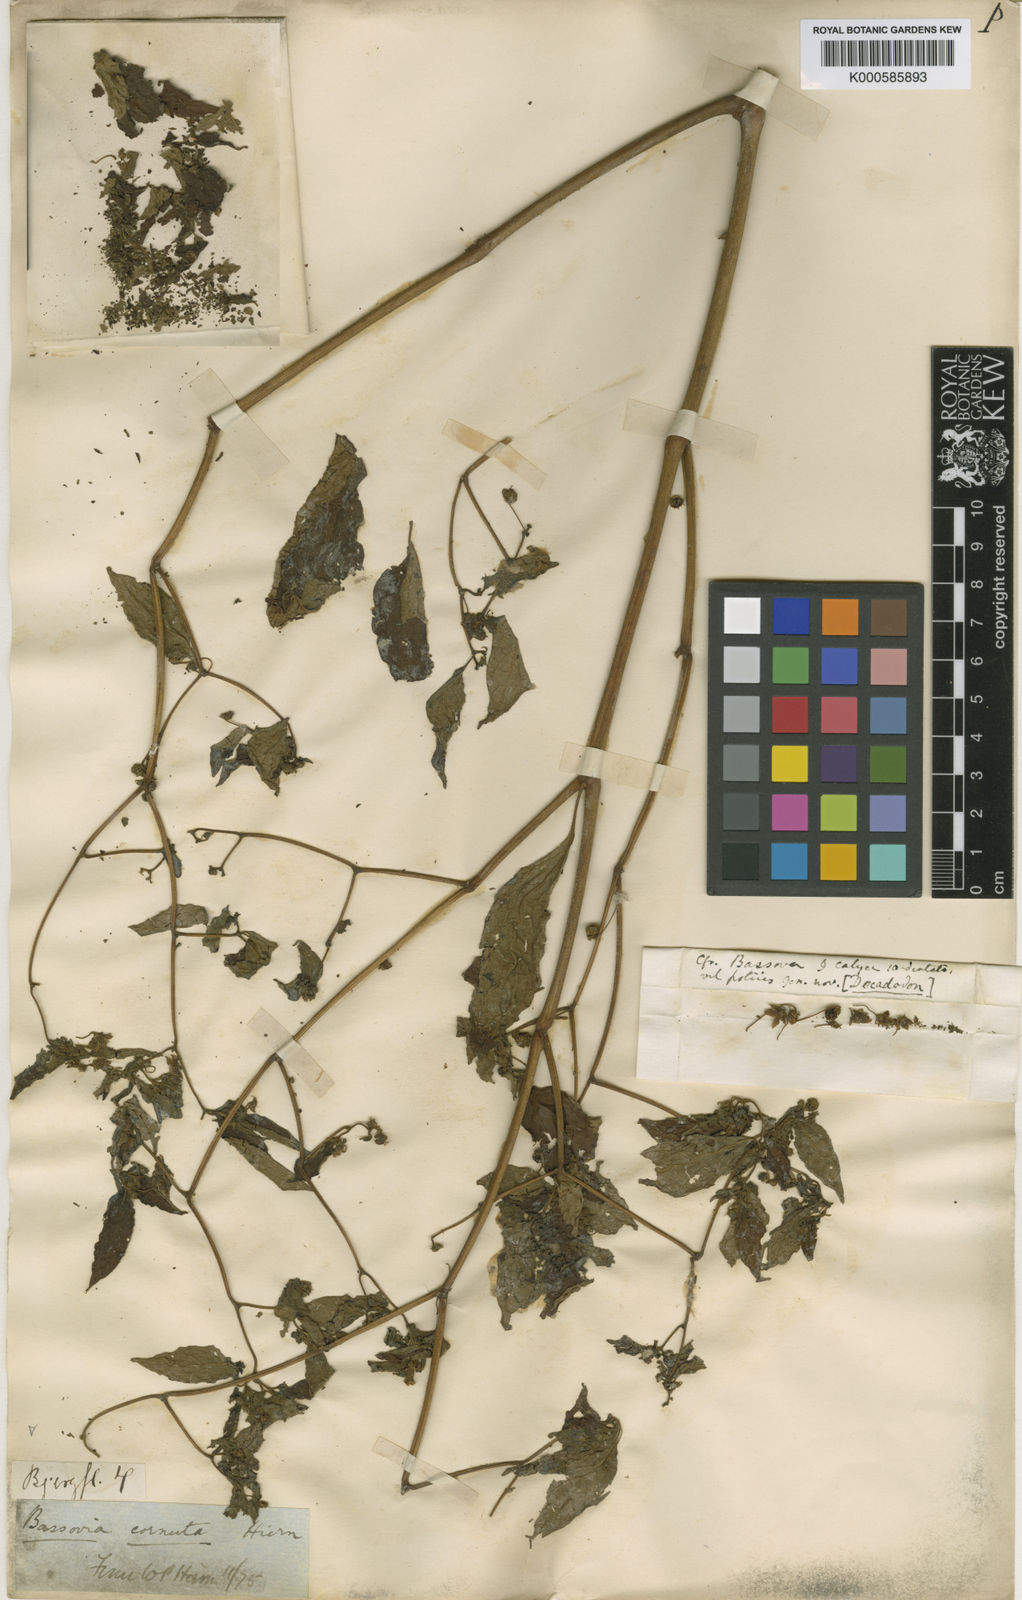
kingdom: Plantae
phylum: Tracheophyta
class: Magnoliopsida
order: Solanales
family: Solanaceae
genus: Capsicum
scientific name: Capsicum cornutum
